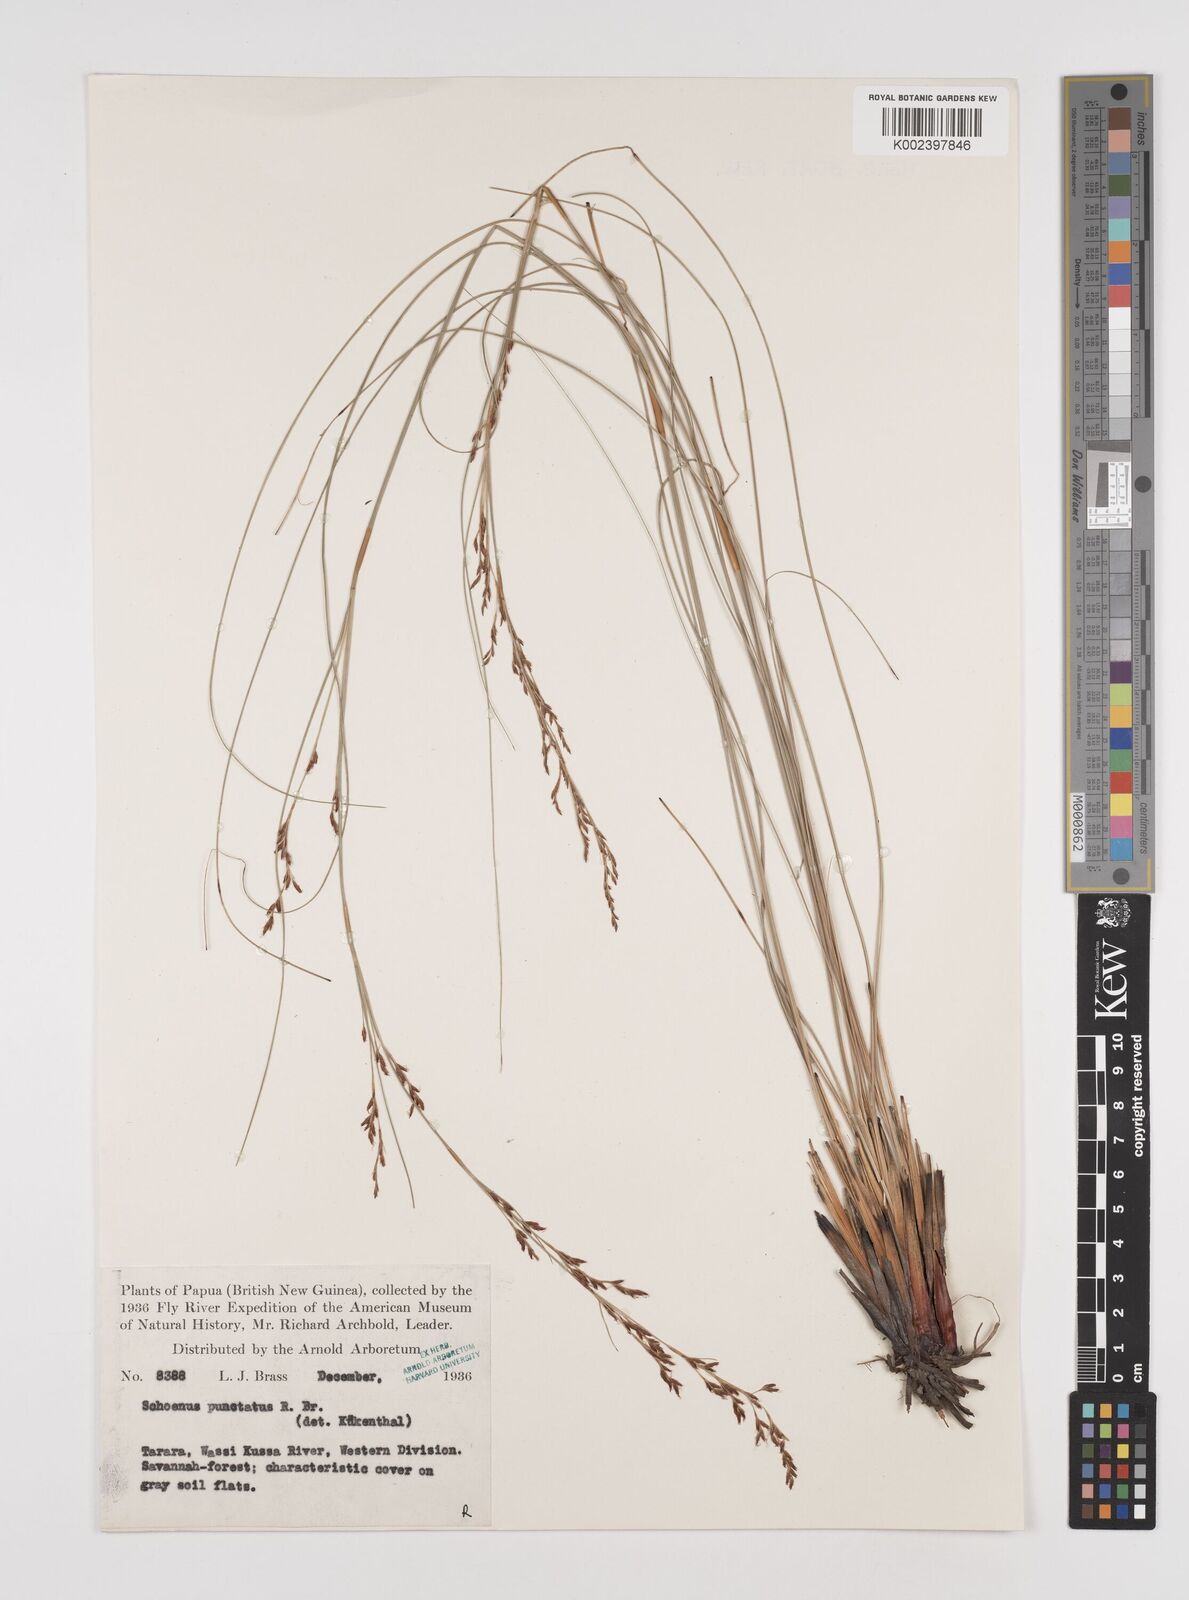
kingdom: Plantae
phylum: Tracheophyta
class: Liliopsida
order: Poales
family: Cyperaceae
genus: Schoenus
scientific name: Schoenus falcatus
